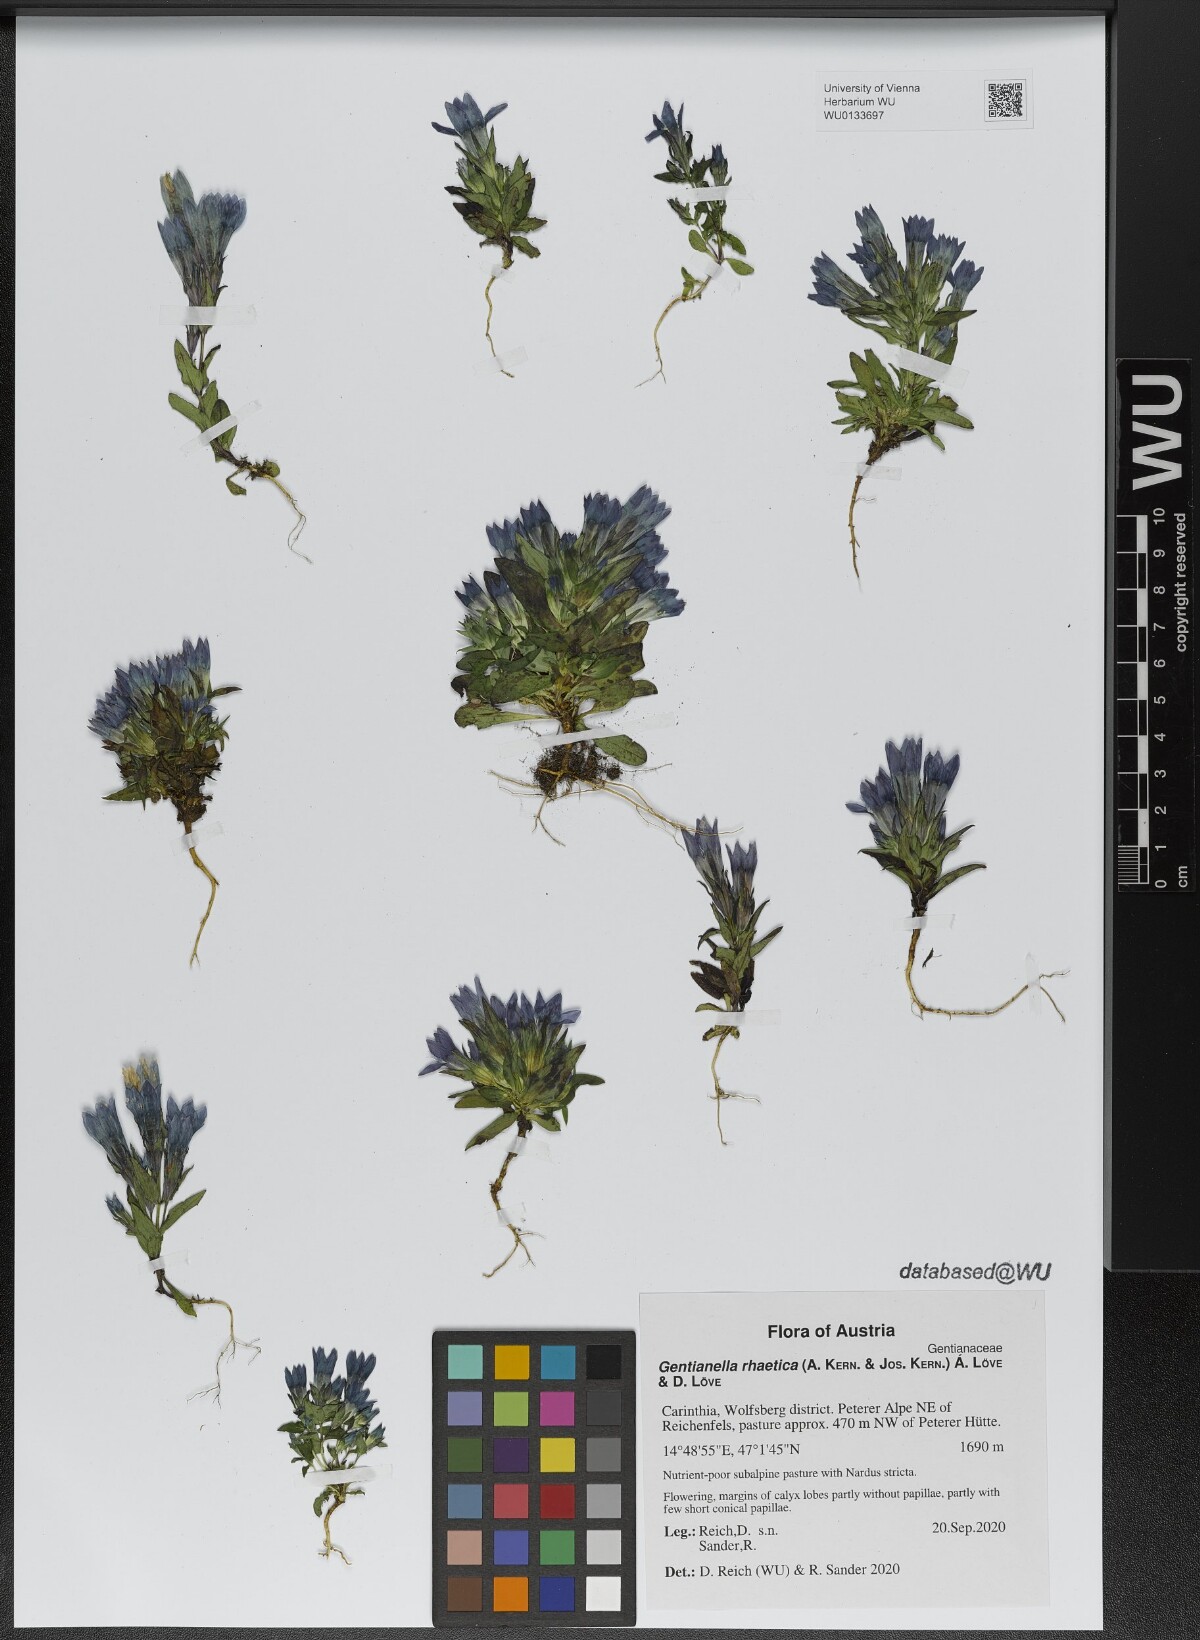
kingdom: Plantae
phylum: Tracheophyta
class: Magnoliopsida
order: Gentianales
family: Gentianaceae
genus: Gentianella
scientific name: Gentianella rhaetica
